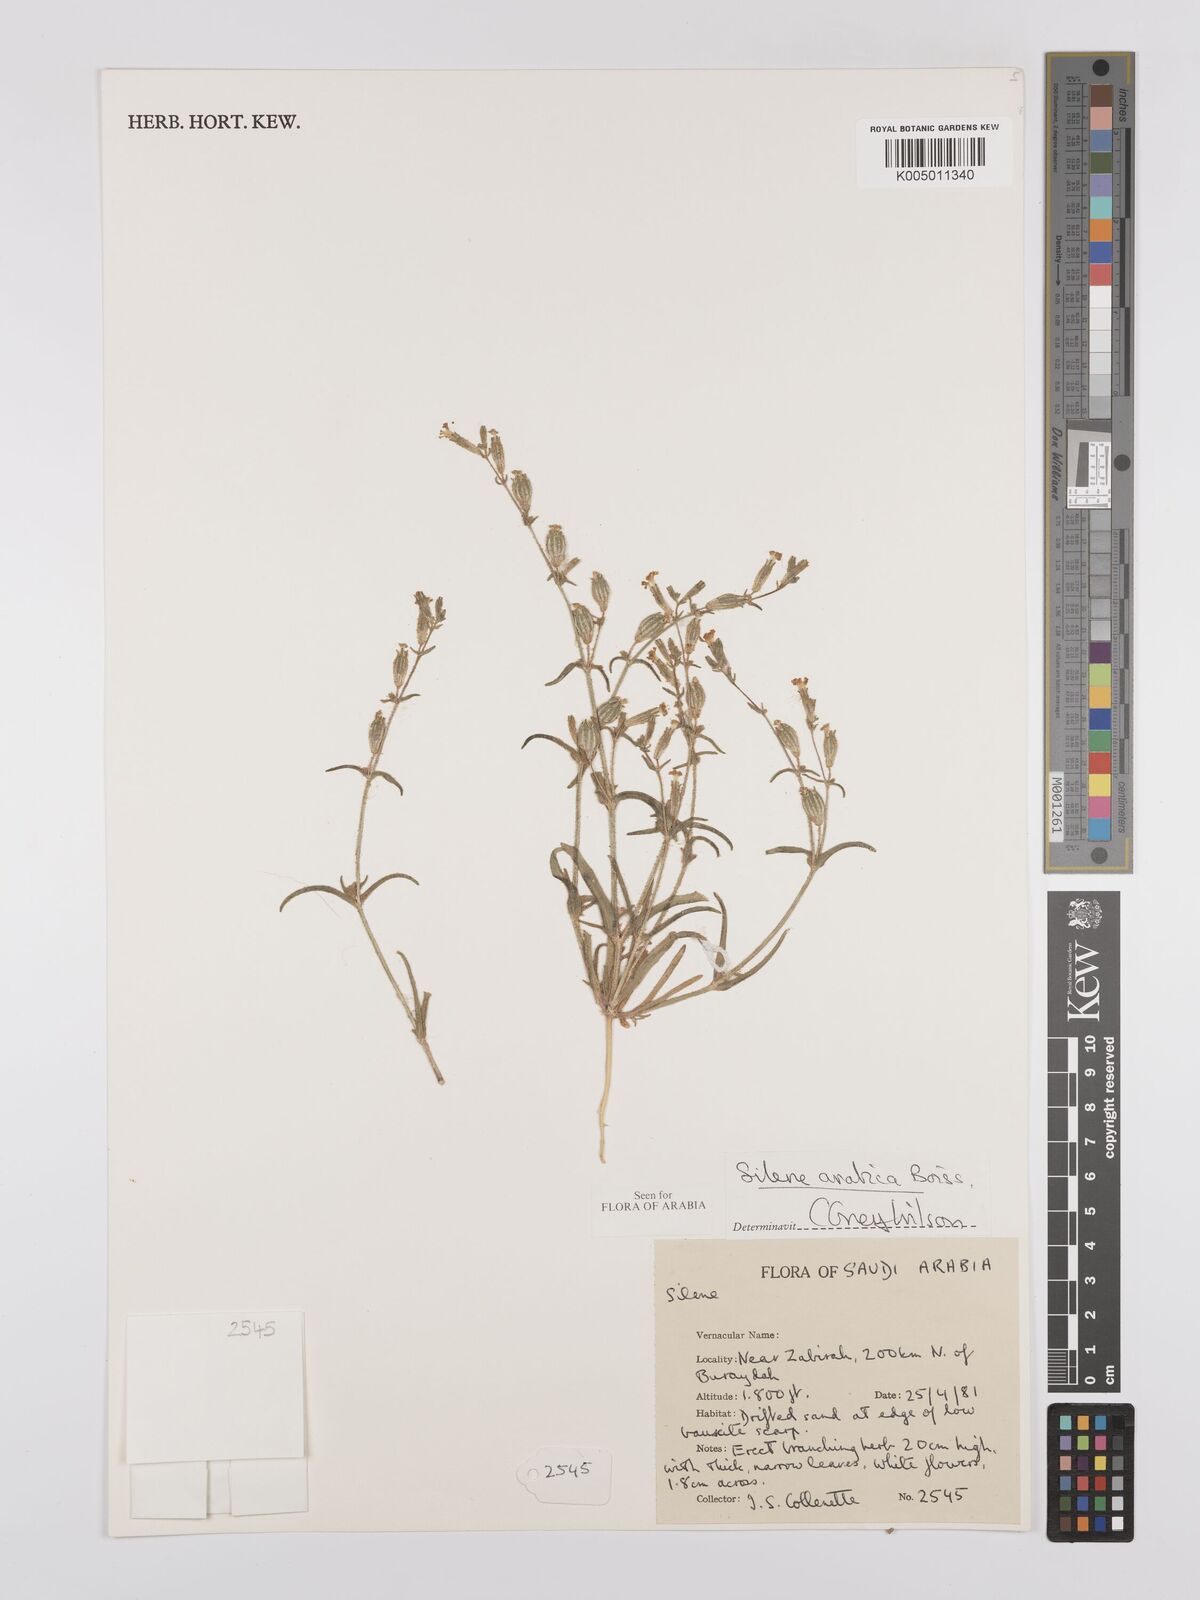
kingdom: Plantae
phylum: Tracheophyta
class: Magnoliopsida
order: Caryophyllales
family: Caryophyllaceae
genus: Silene
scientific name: Silene arabica
